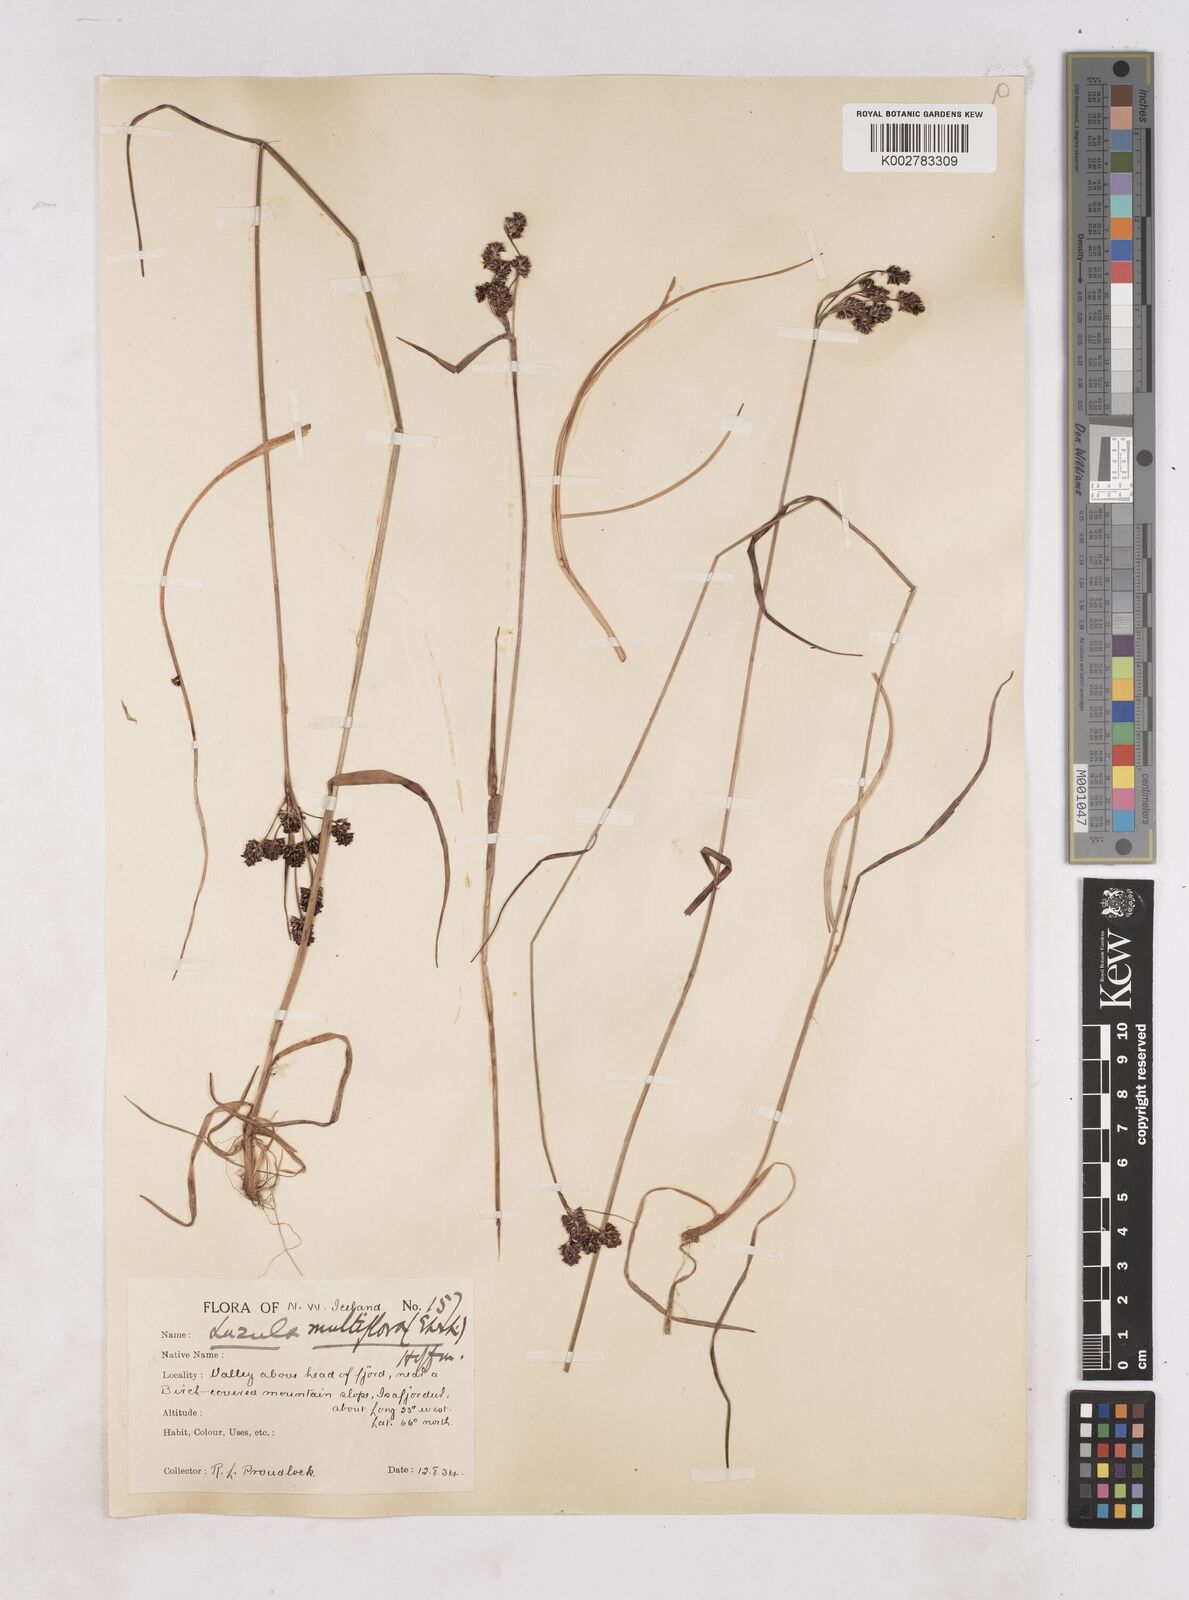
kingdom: Plantae
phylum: Tracheophyta
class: Liliopsida
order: Poales
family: Juncaceae
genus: Luzula
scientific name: Luzula multiflora
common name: Heath wood-rush
